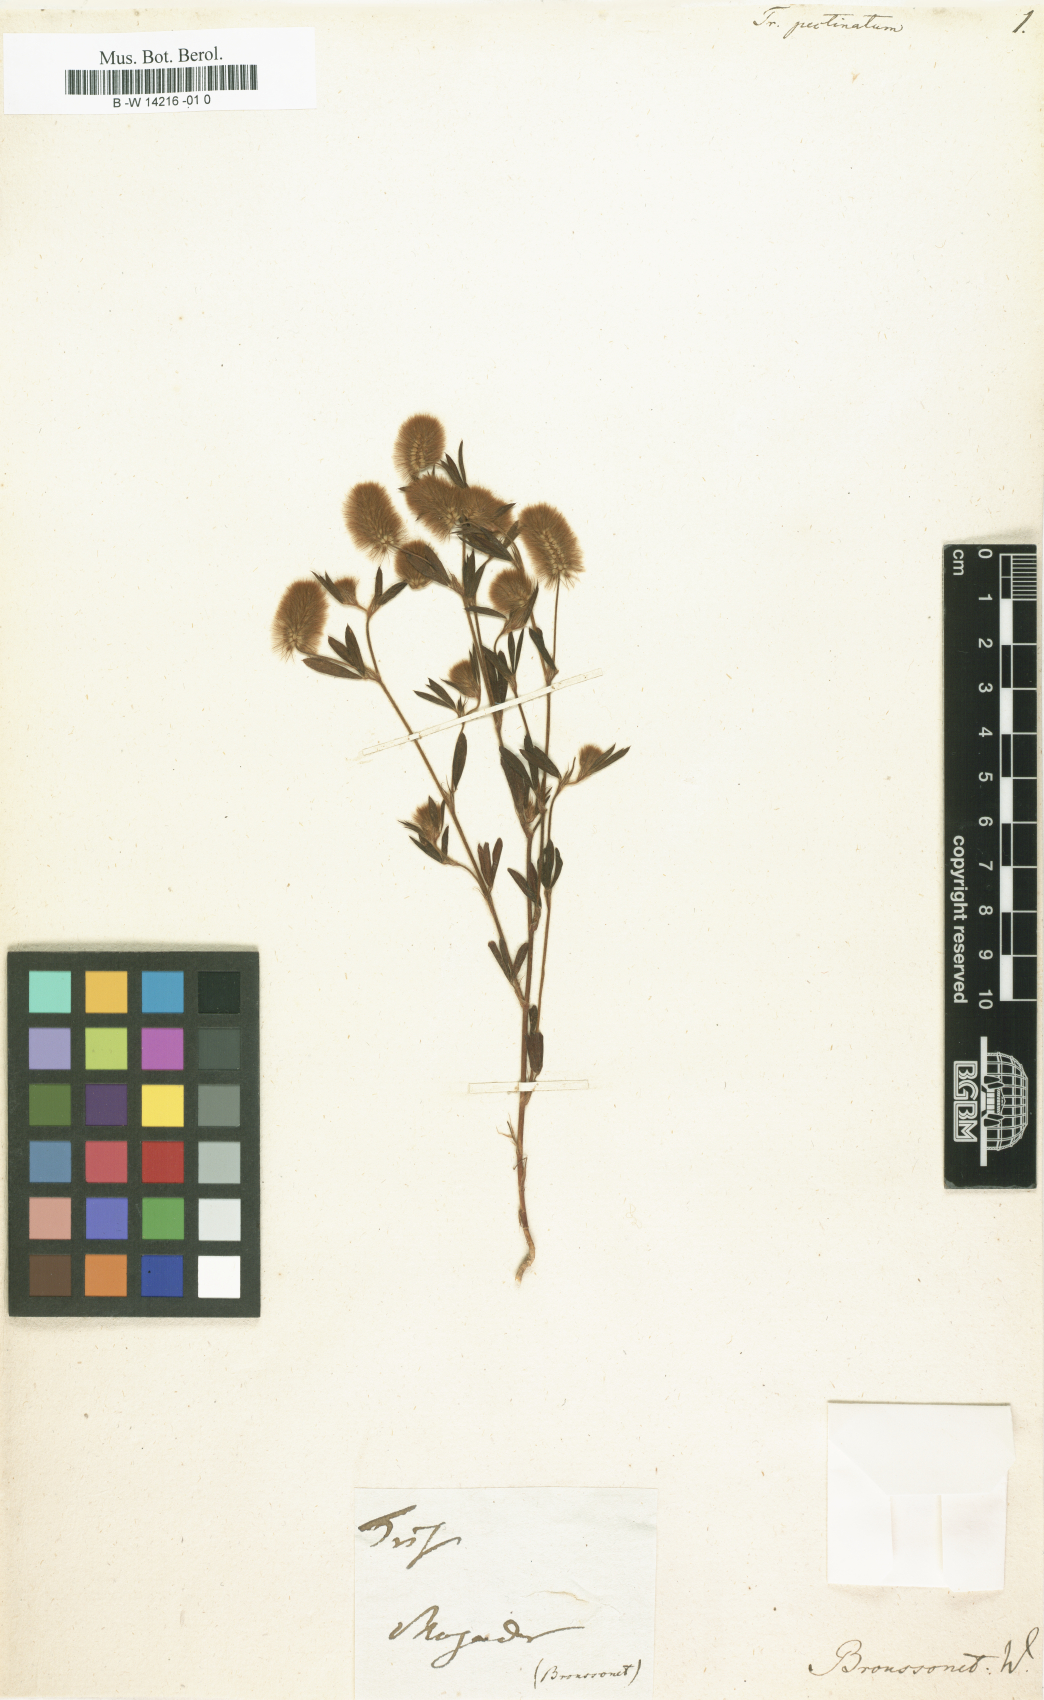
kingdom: Plantae
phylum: Tracheophyta
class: Magnoliopsida
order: Fabales
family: Fabaceae
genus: Trifolium
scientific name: Trifolium arvense
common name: Hare's-foot clover
